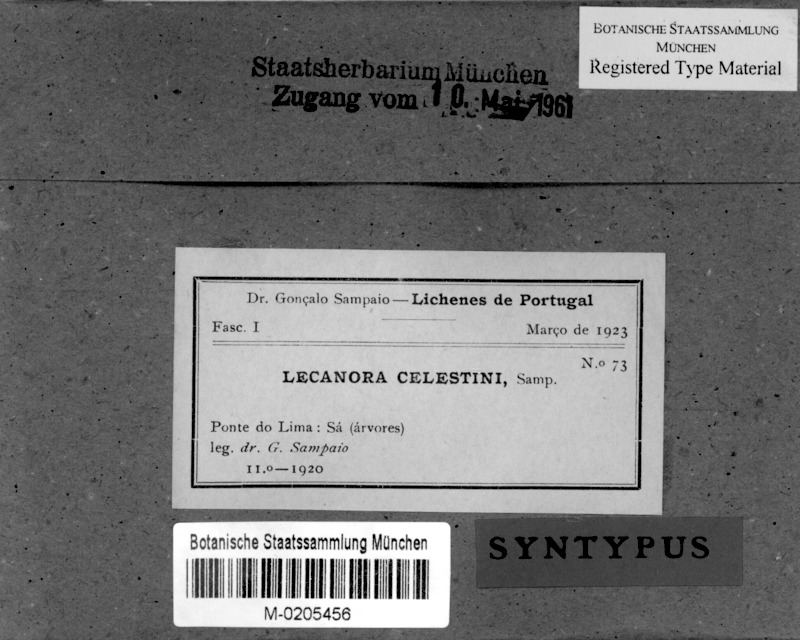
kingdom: Fungi
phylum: Ascomycota
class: Lecanoromycetes
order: Lecanorales
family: Lecanoraceae
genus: Lecanora
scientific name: Lecanora
